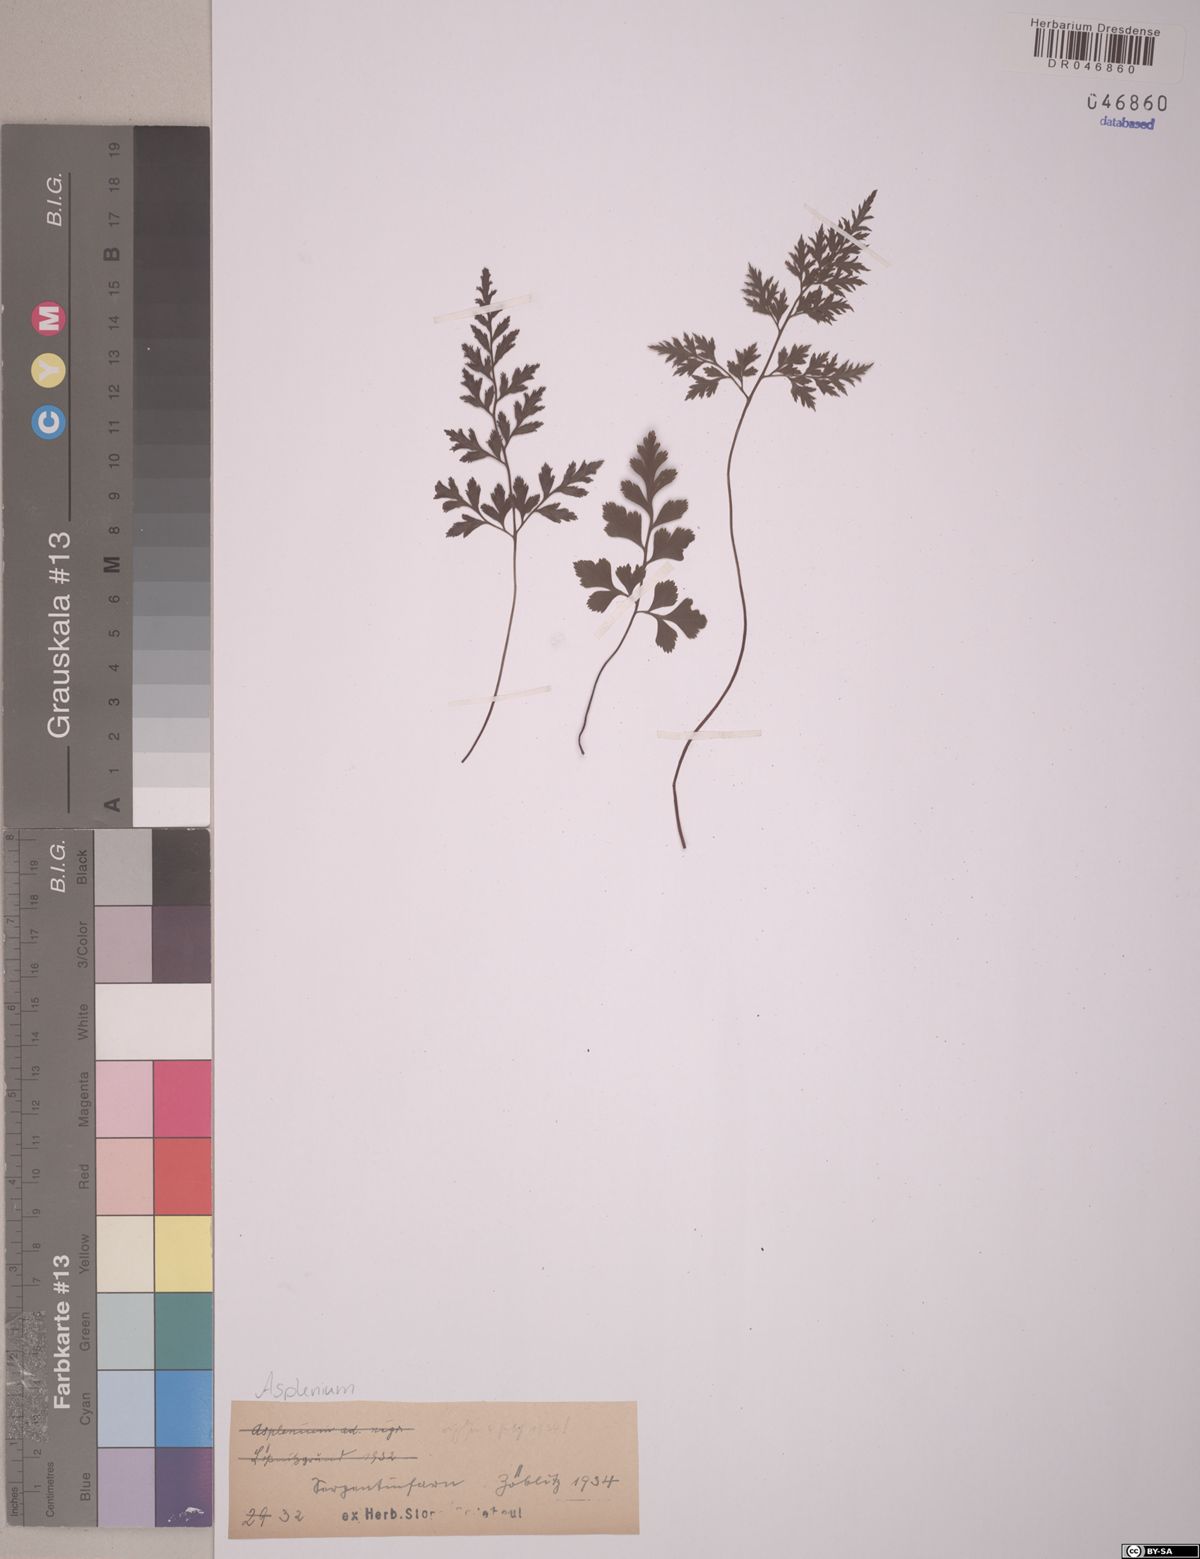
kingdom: Plantae
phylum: Tracheophyta
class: Polypodiopsida
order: Polypodiales
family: Aspleniaceae
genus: Asplenium
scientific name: Asplenium cuneifolium
